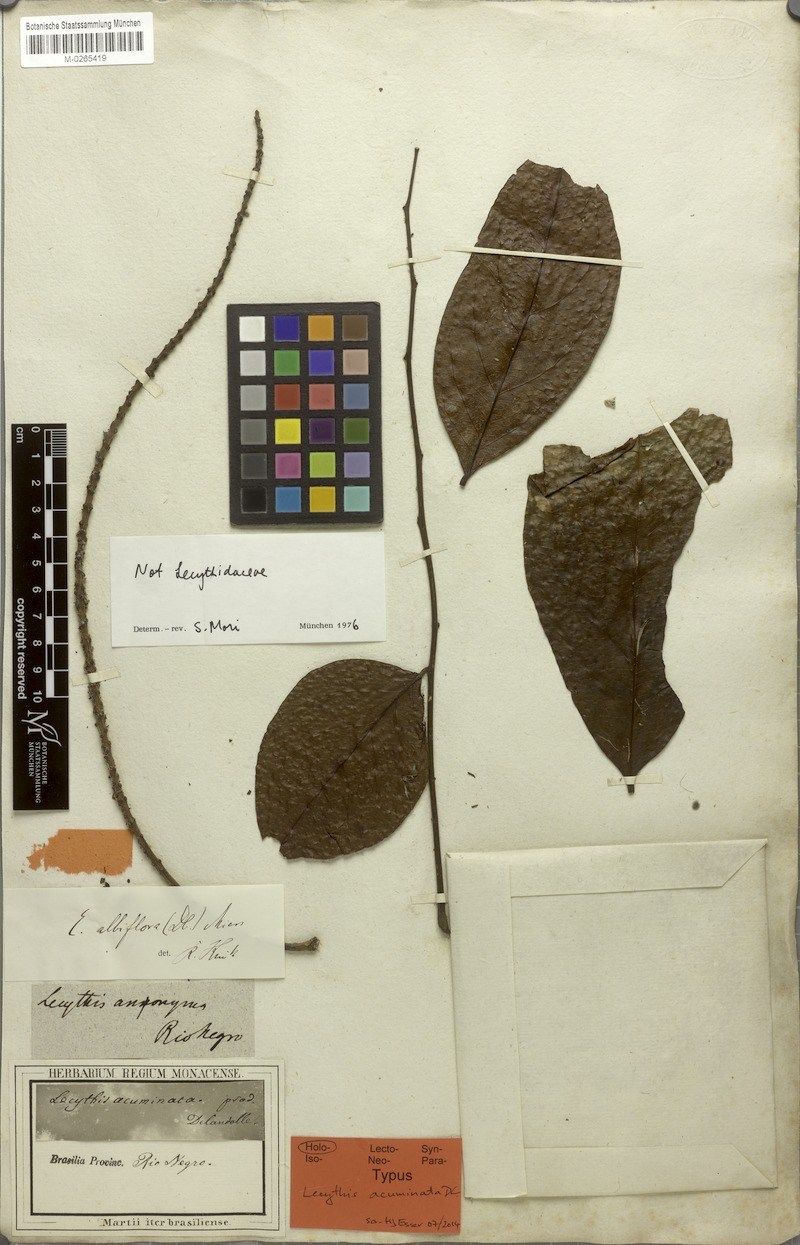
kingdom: Plantae
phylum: Tracheophyta
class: Magnoliopsida
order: Ericales
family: Lecythidaceae
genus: Eschweilera
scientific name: Eschweilera albiflora
